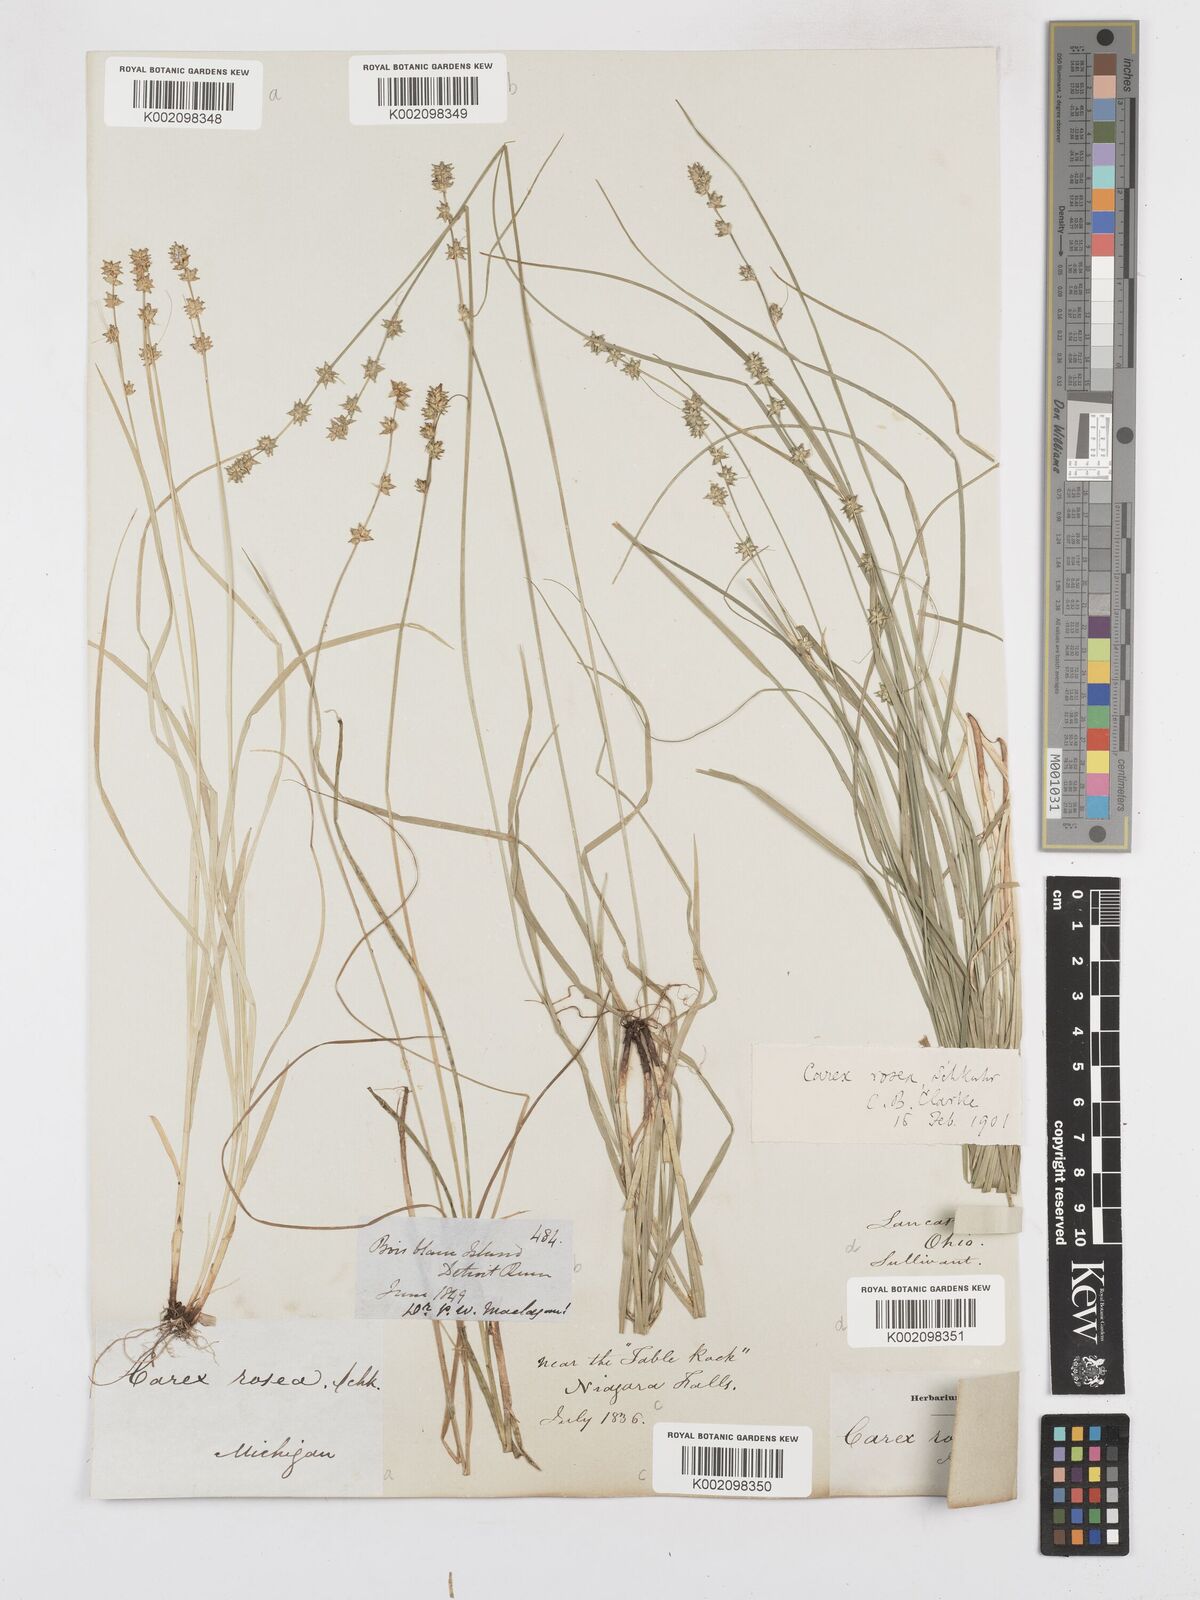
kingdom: Plantae
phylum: Tracheophyta
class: Liliopsida
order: Poales
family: Cyperaceae
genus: Carex
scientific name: Carex rosea
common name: Curly-styled wood sedge
